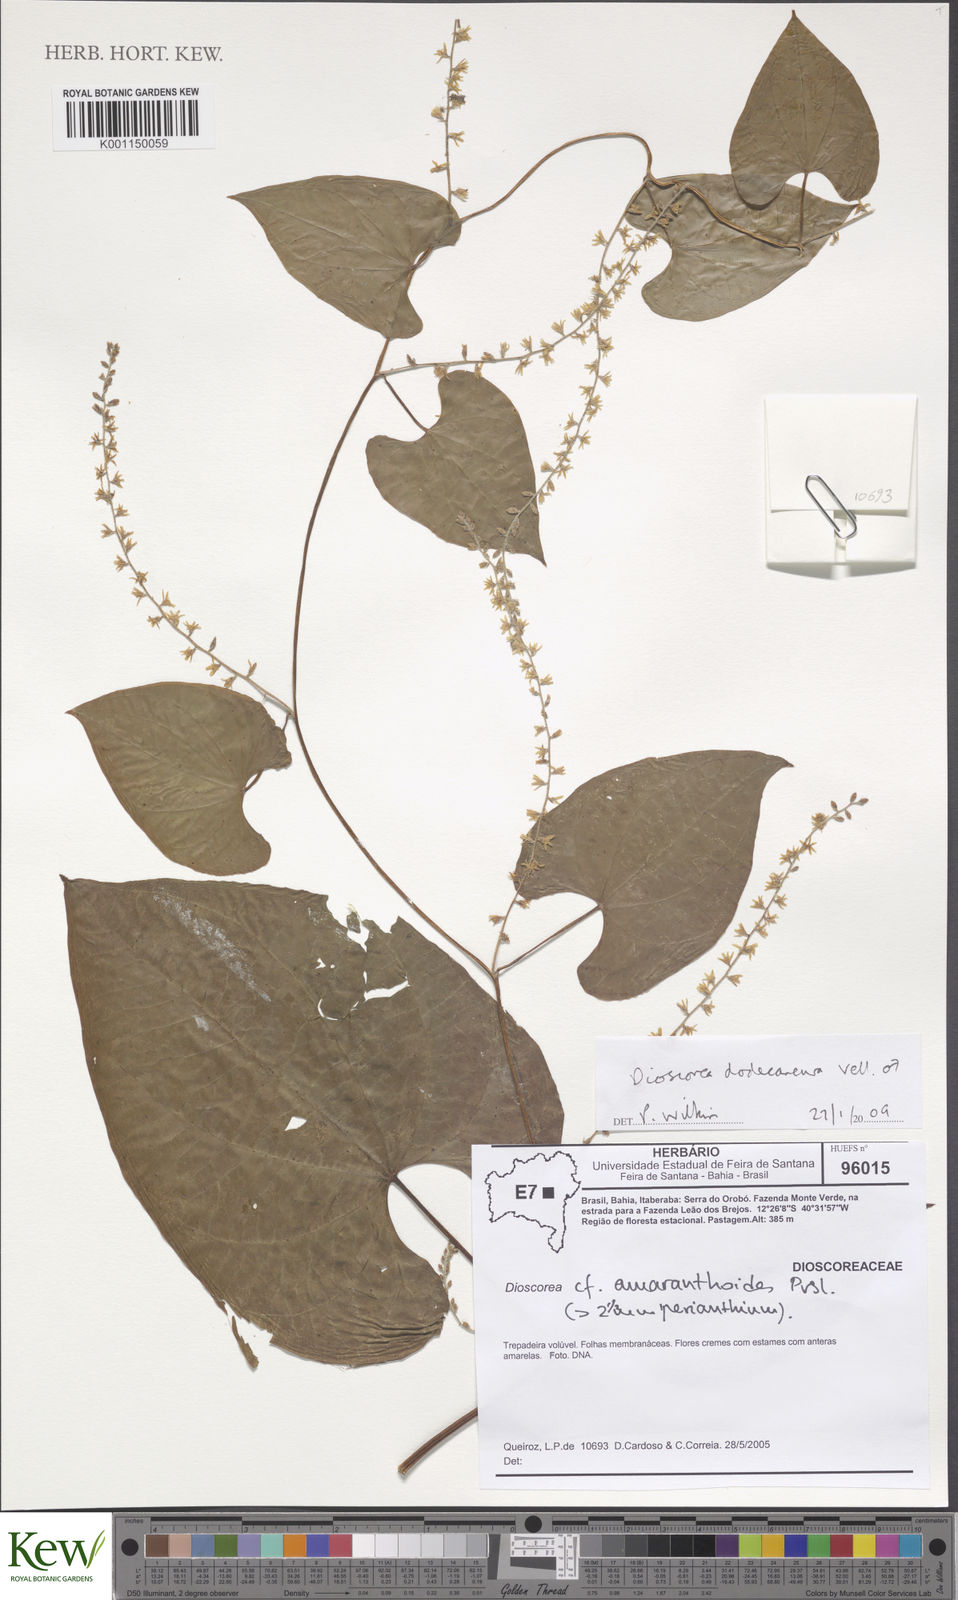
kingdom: Plantae
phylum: Tracheophyta
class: Liliopsida
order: Dioscoreales
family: Dioscoreaceae
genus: Dioscorea
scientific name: Dioscorea dodecaneura
